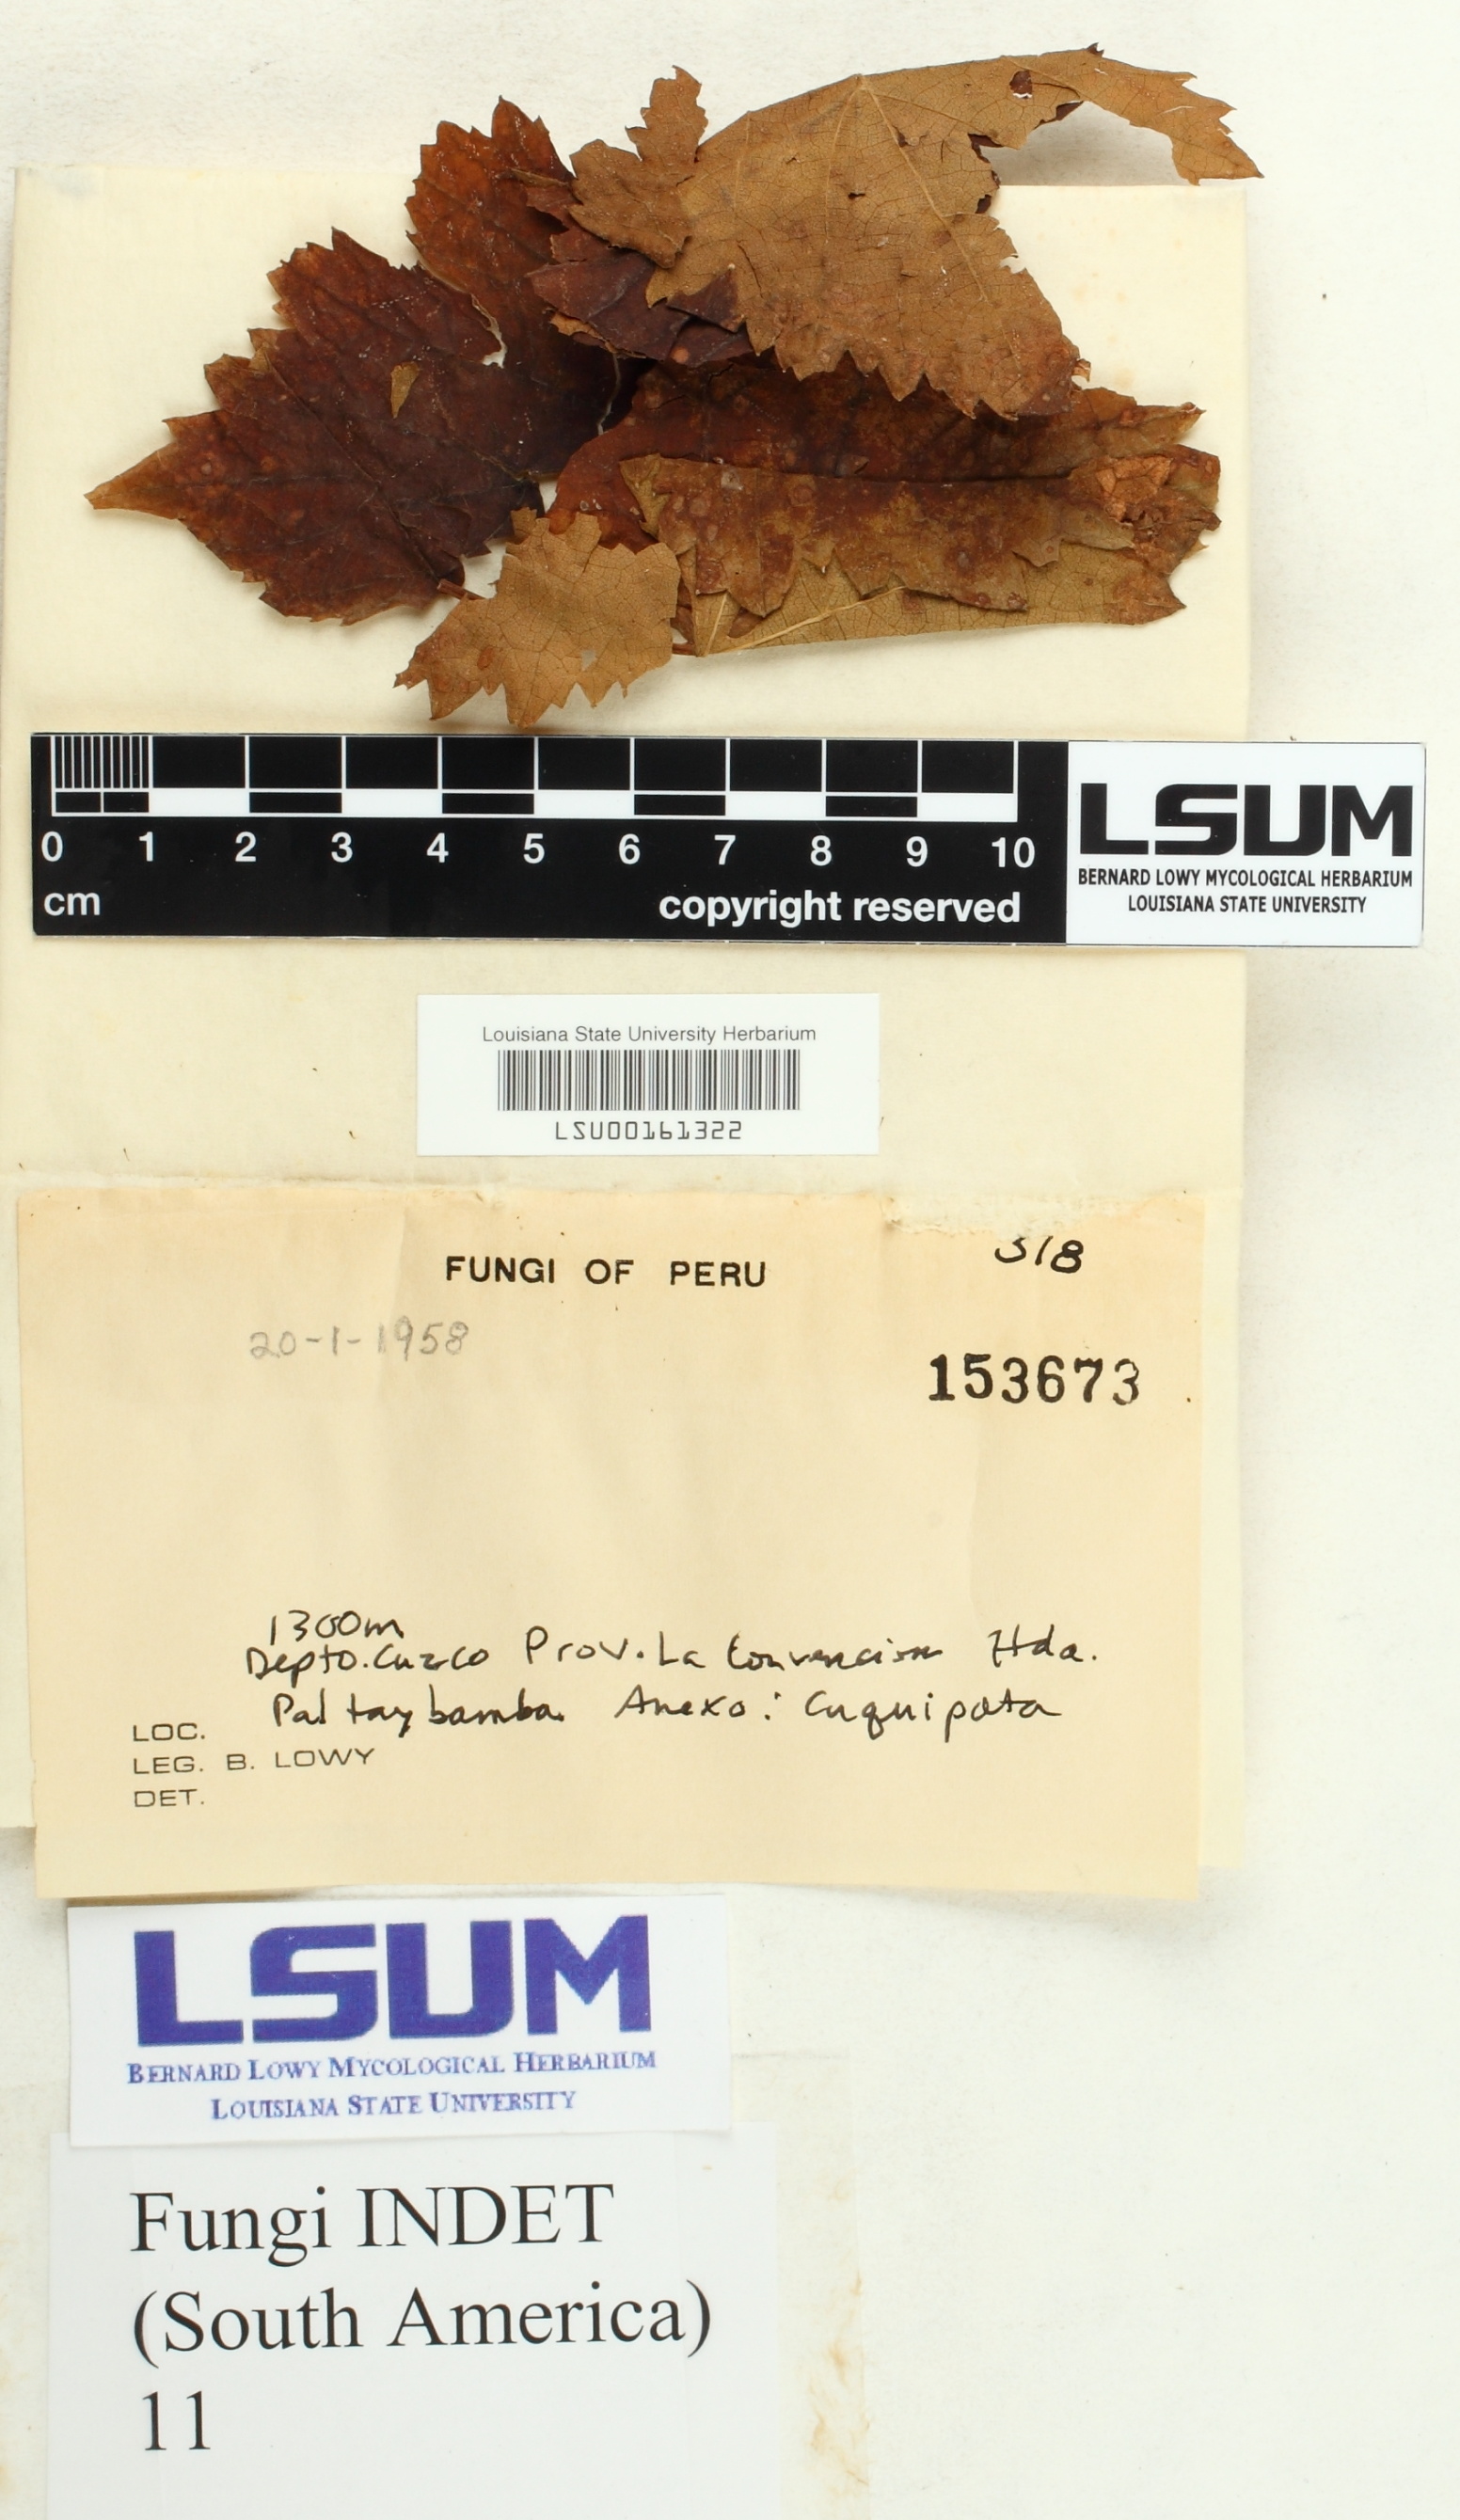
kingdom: Fungi
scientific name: Fungi
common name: Fungi
